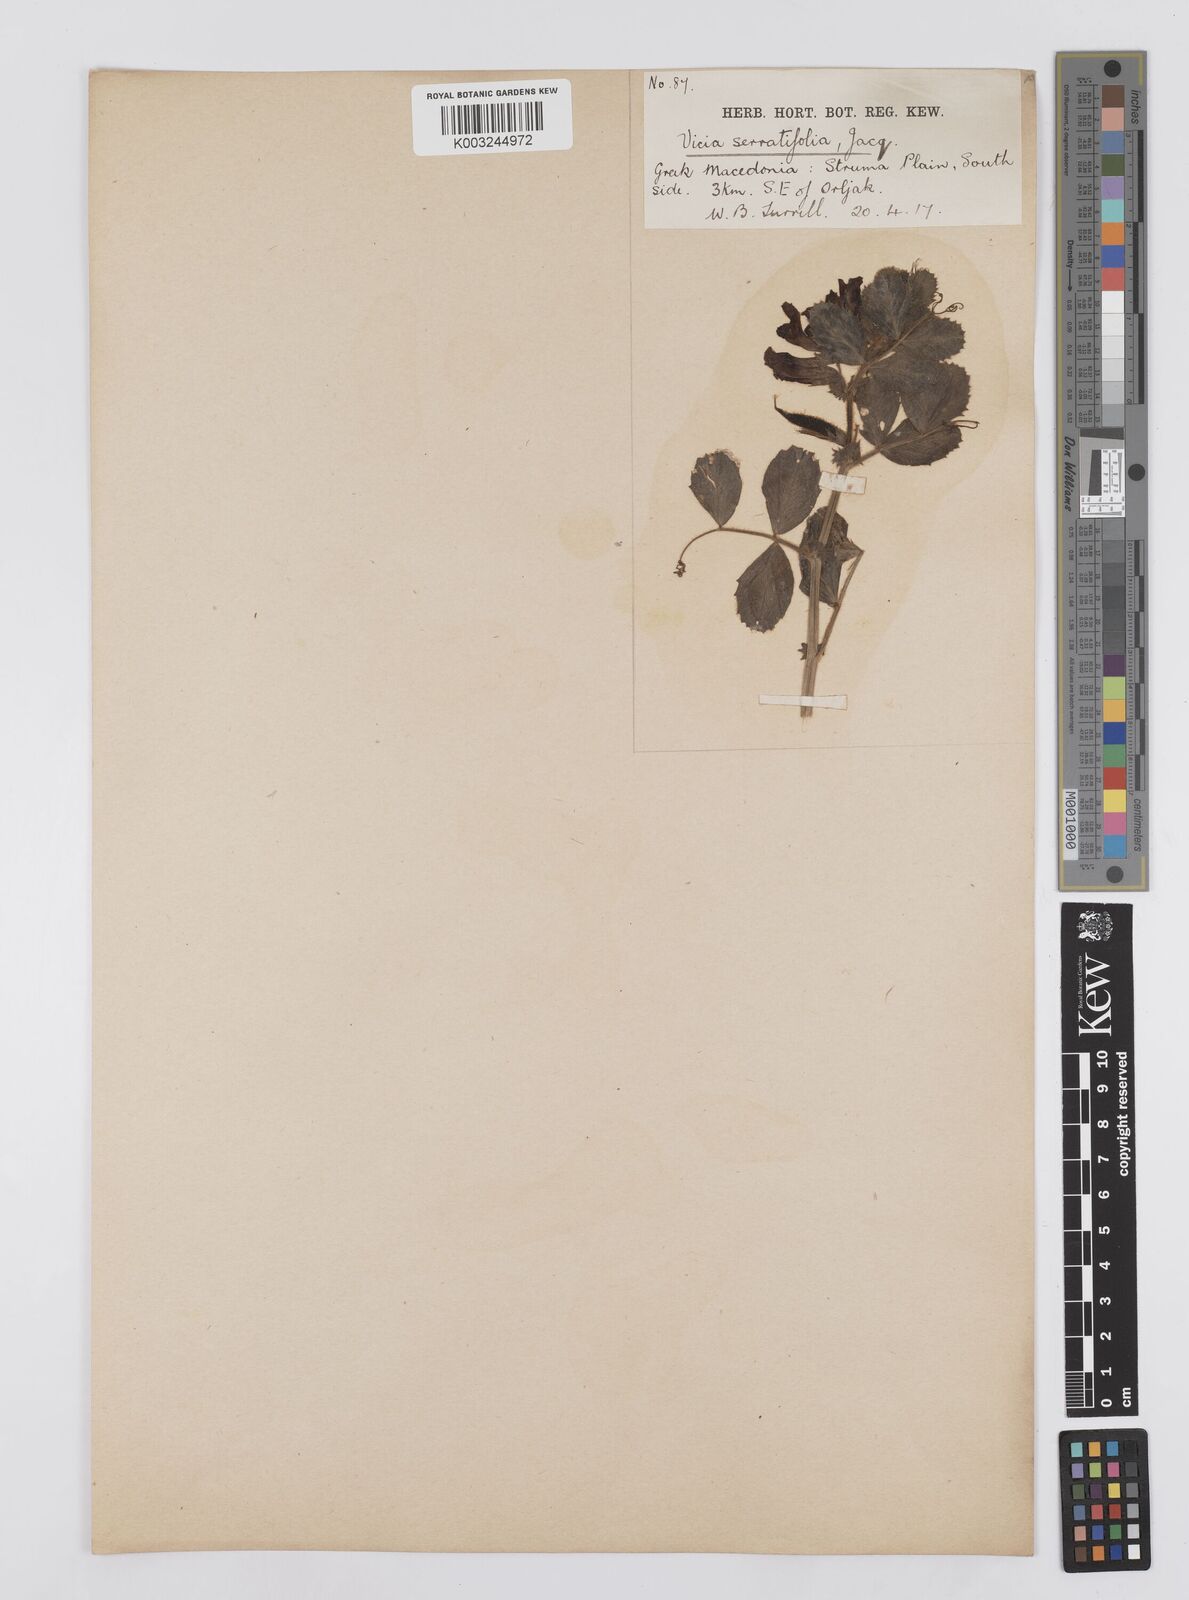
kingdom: Plantae
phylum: Tracheophyta
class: Magnoliopsida
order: Fabales
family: Fabaceae
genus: Vicia
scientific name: Vicia serratifolia
